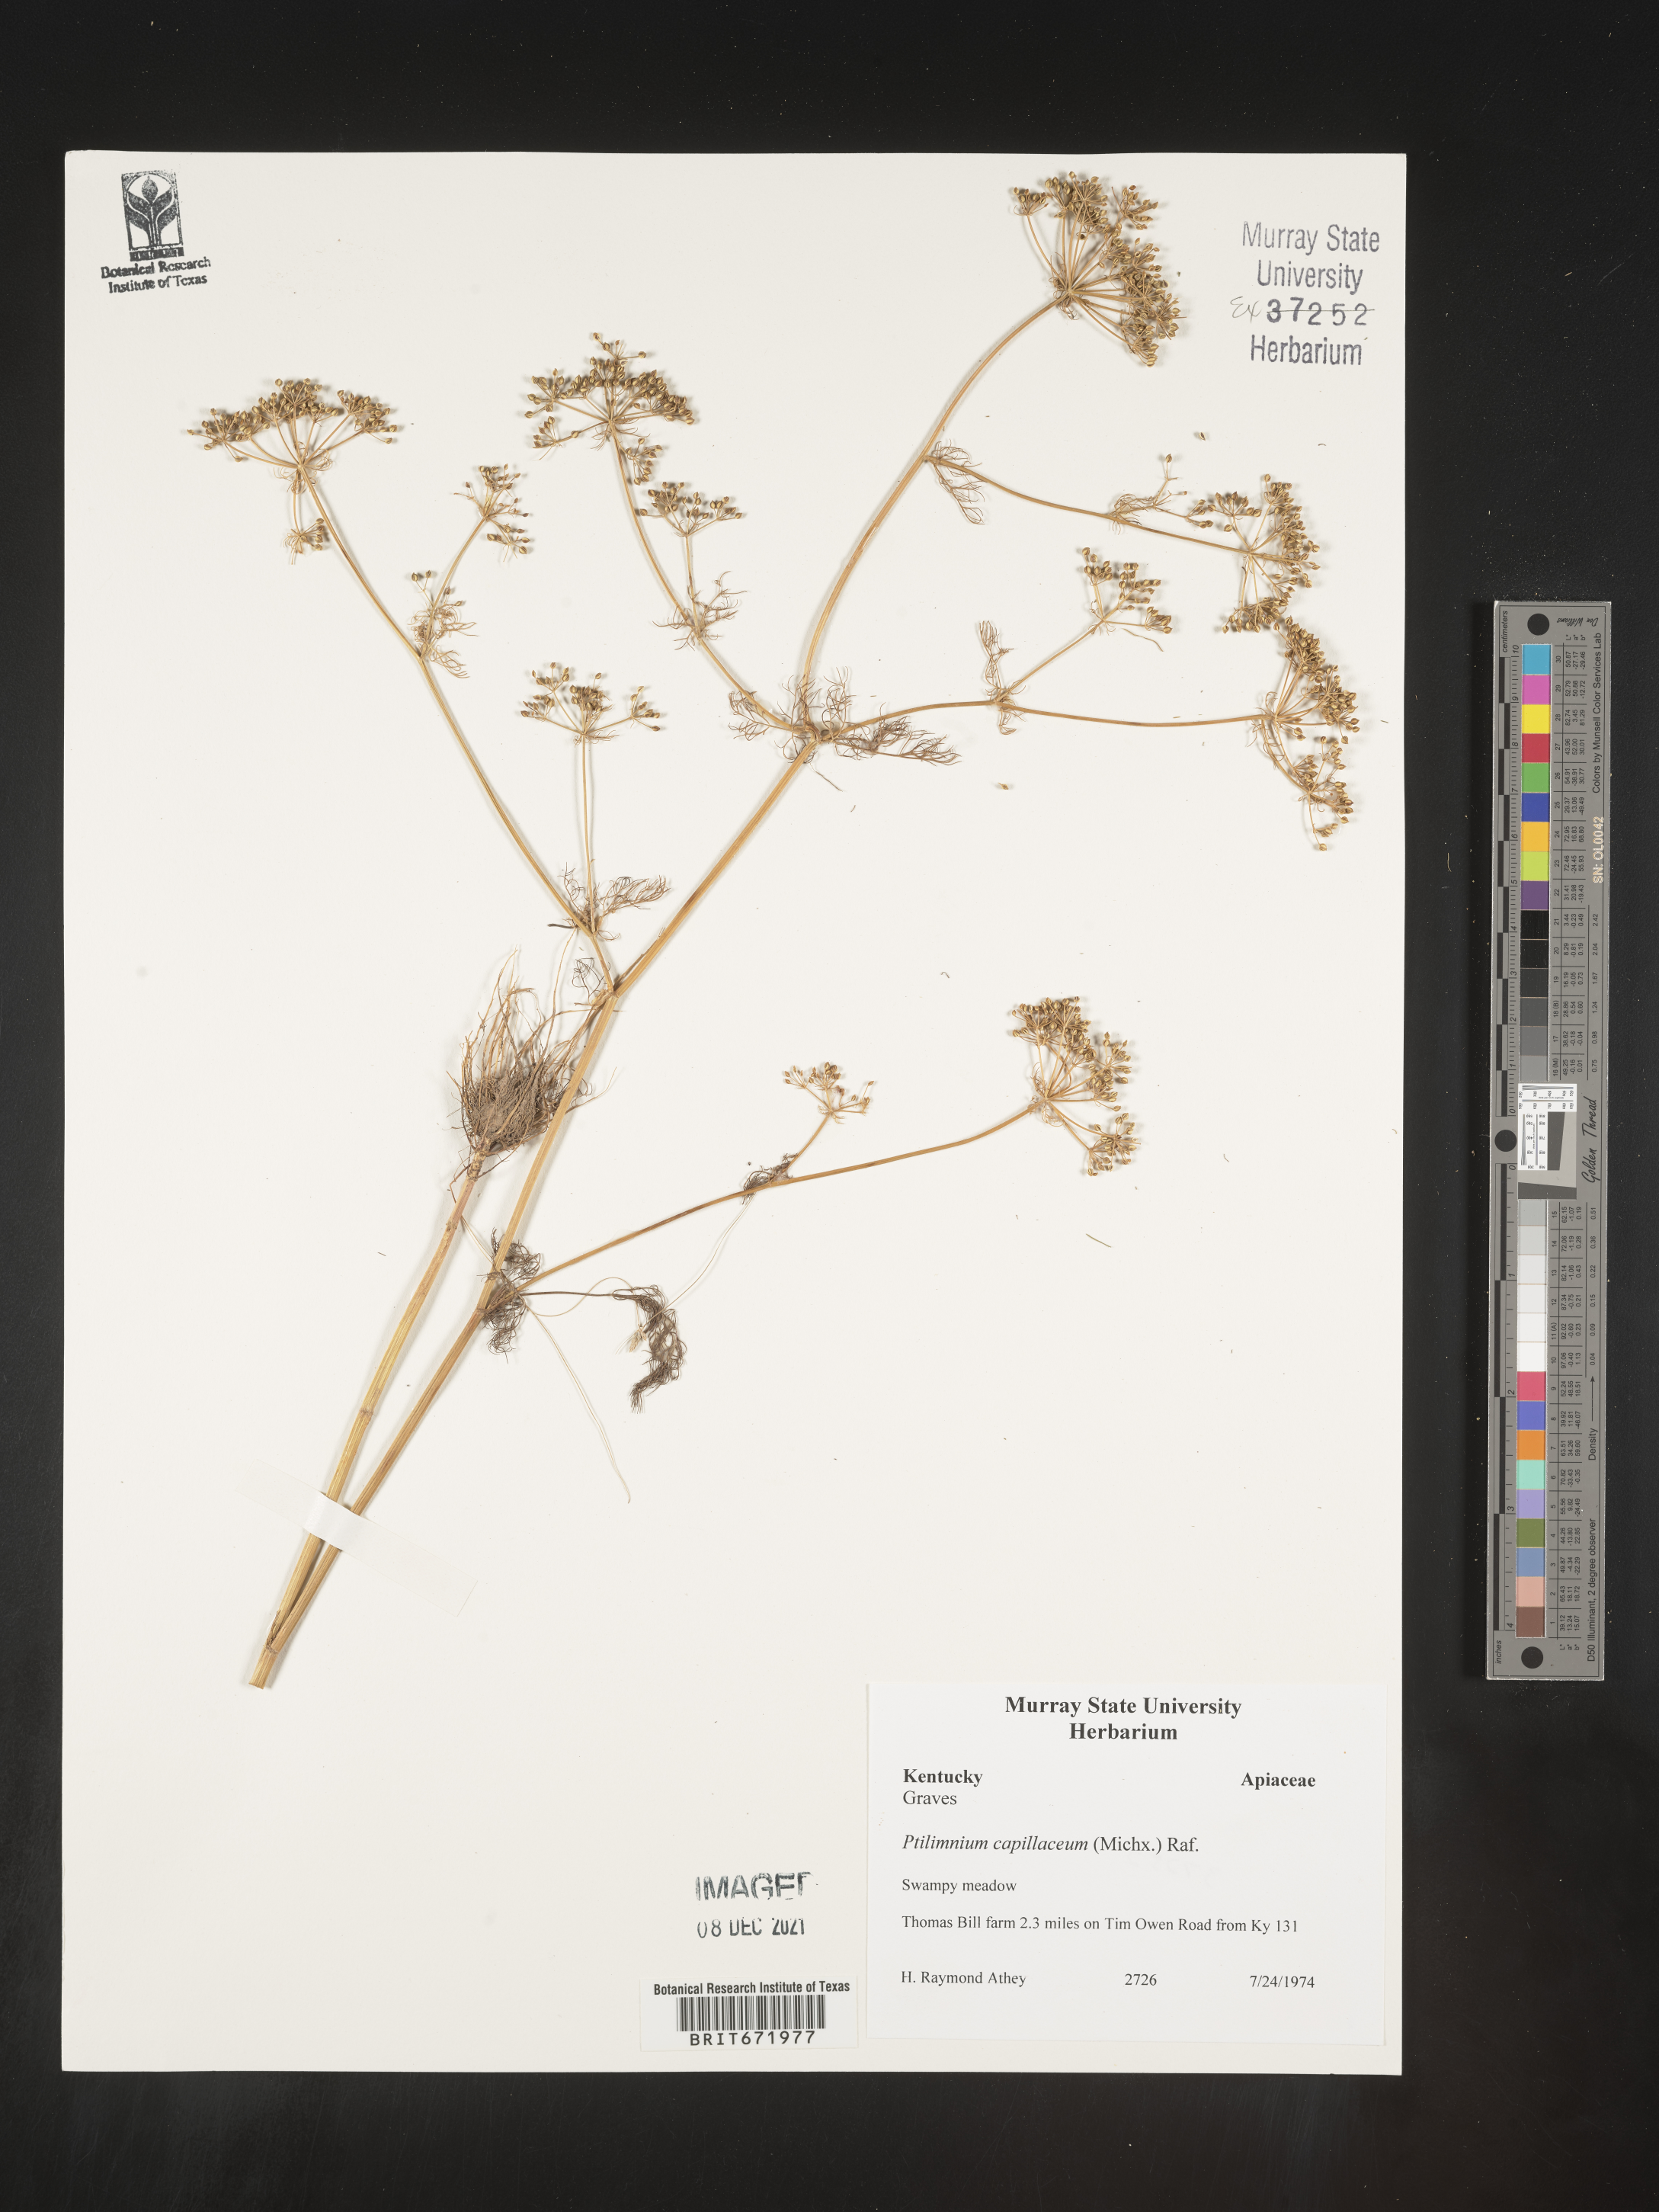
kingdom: Plantae
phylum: Tracheophyta
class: Magnoliopsida
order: Apiales
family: Apiaceae
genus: Ptilimnium
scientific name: Ptilimnium capillaceum
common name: Herbwilliam
